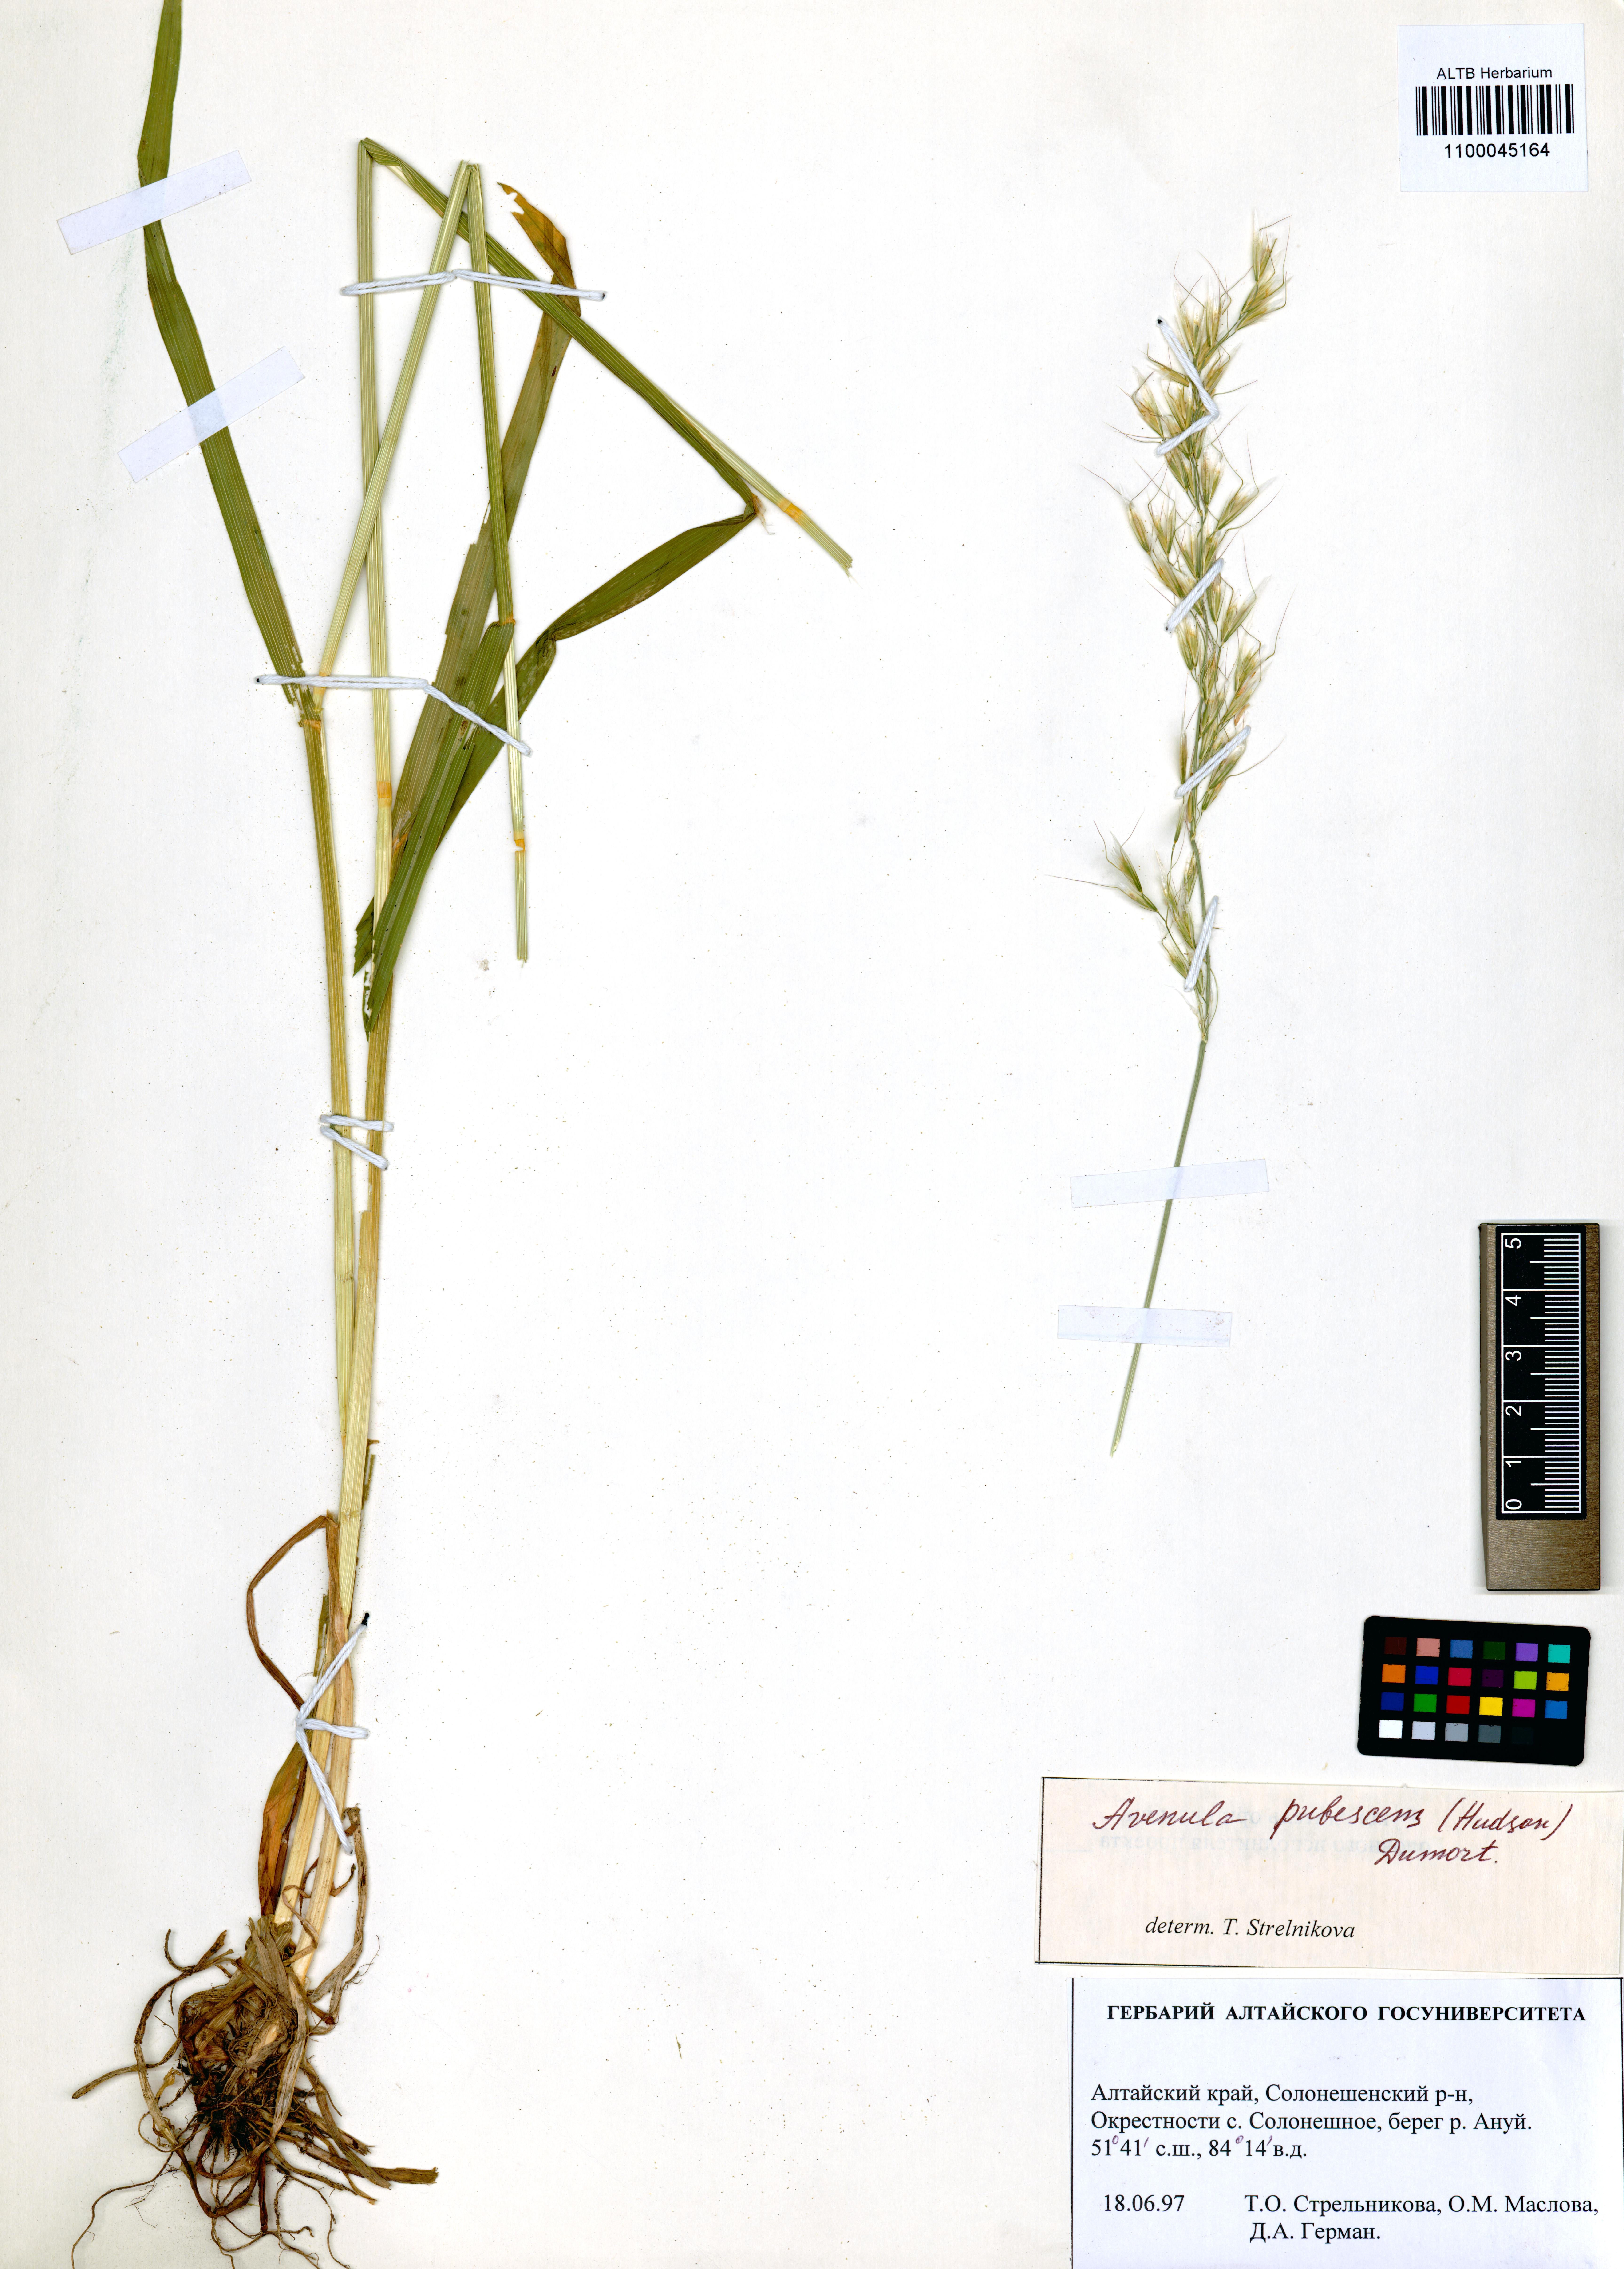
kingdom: Plantae
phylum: Tracheophyta
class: Liliopsida
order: Poales
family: Poaceae
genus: Avenula
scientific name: Avenula pubescens
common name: Downy alpine oatgrass
